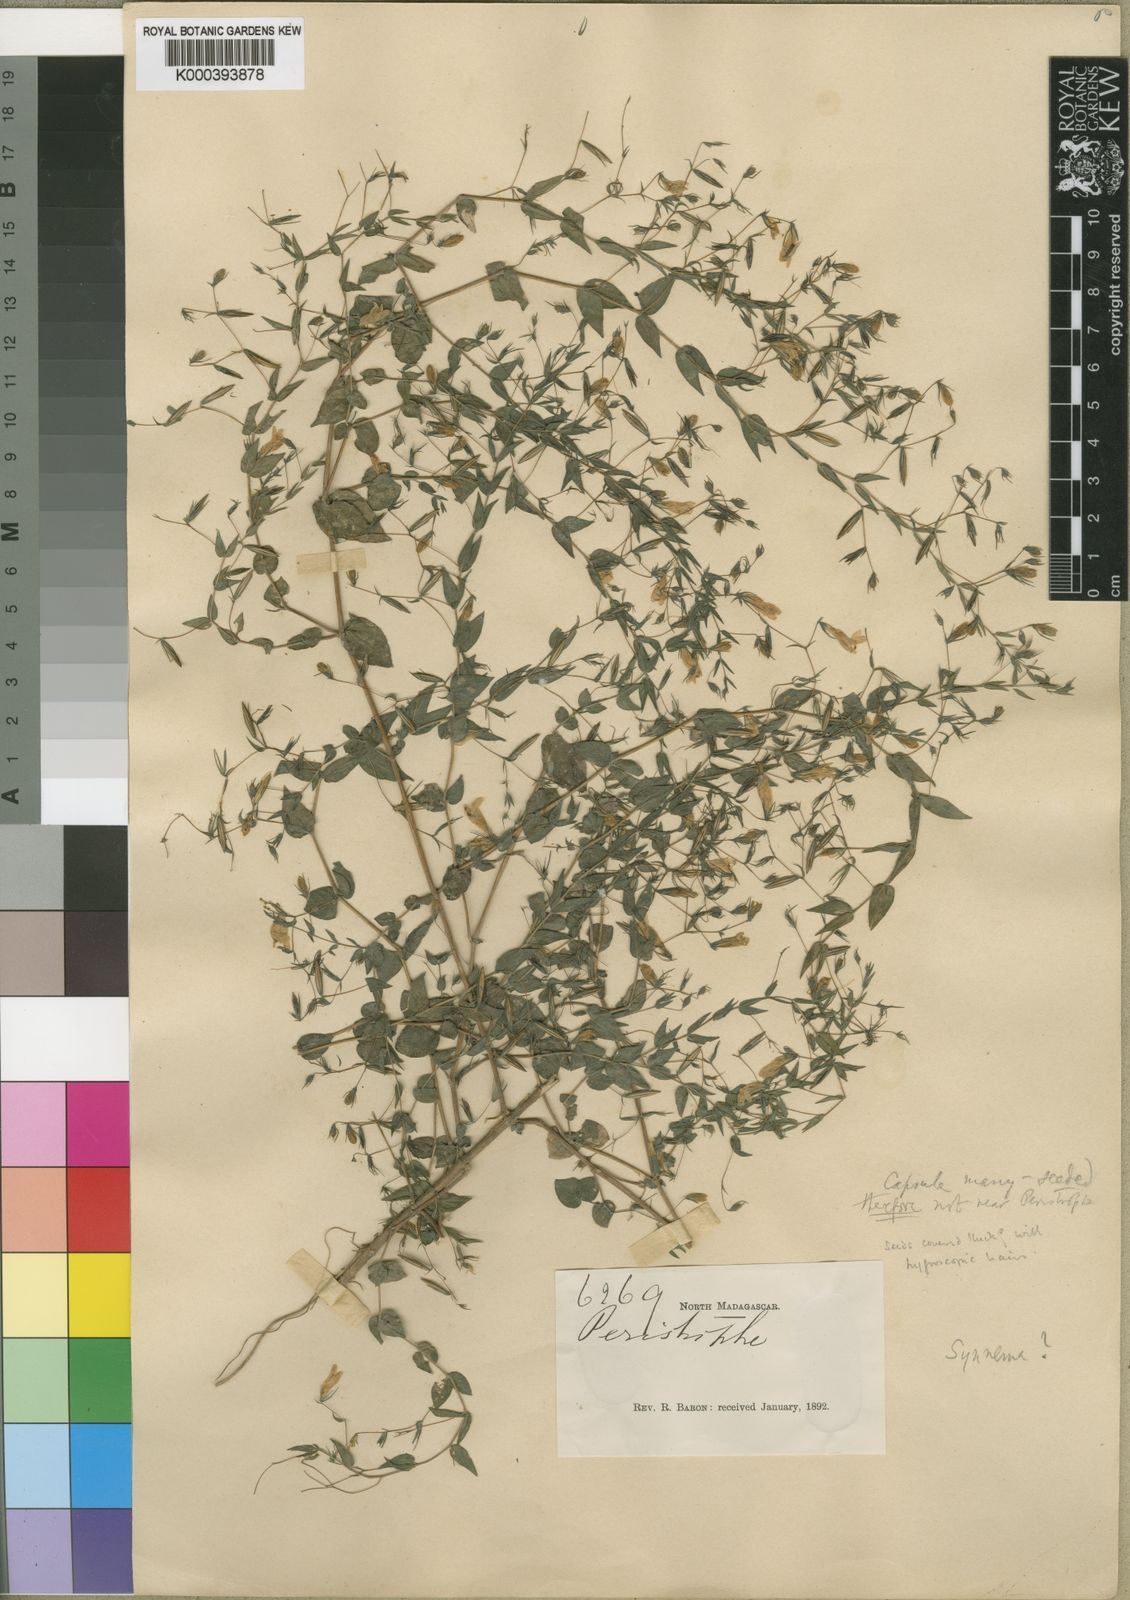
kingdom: Plantae
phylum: Tracheophyta
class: Magnoliopsida
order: Lamiales
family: Acanthaceae
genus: Hygrophila
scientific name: Hygrophila baronii
